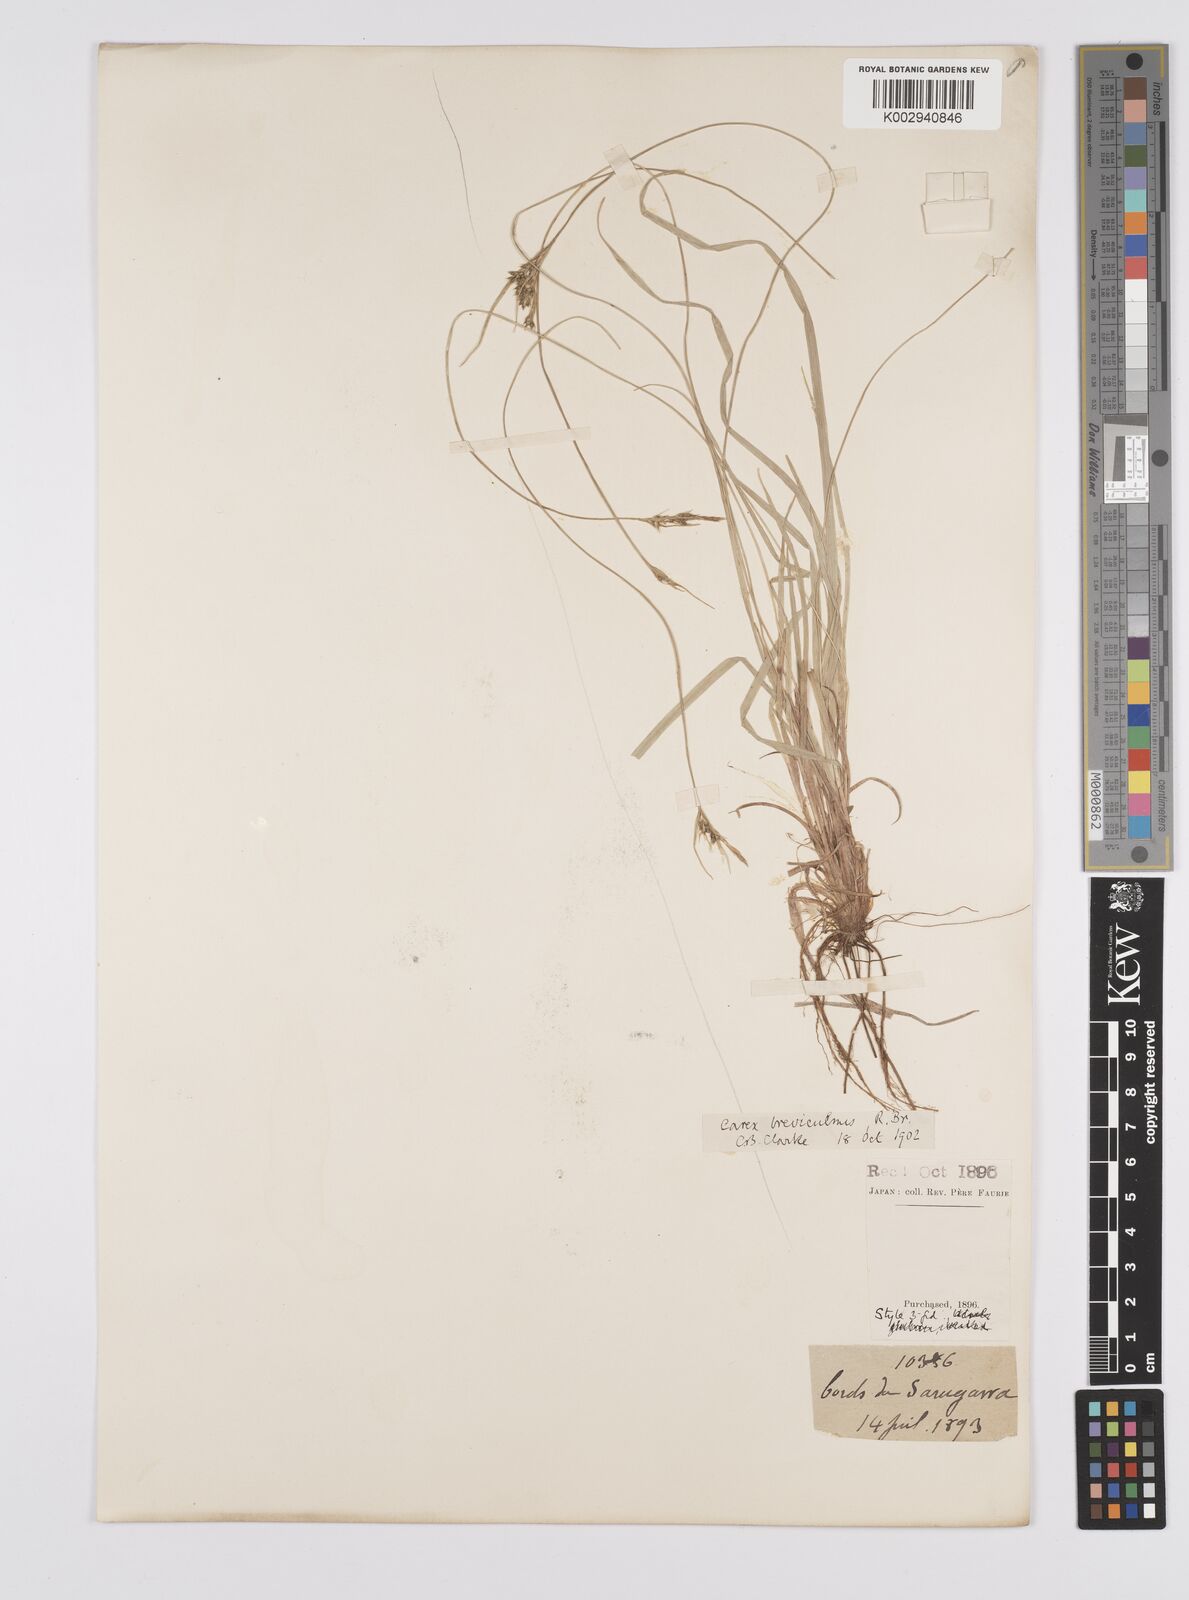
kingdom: Plantae
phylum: Tracheophyta
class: Liliopsida
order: Poales
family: Cyperaceae
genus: Carex
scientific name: Carex breviculmis
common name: Asian shortstem sedge
